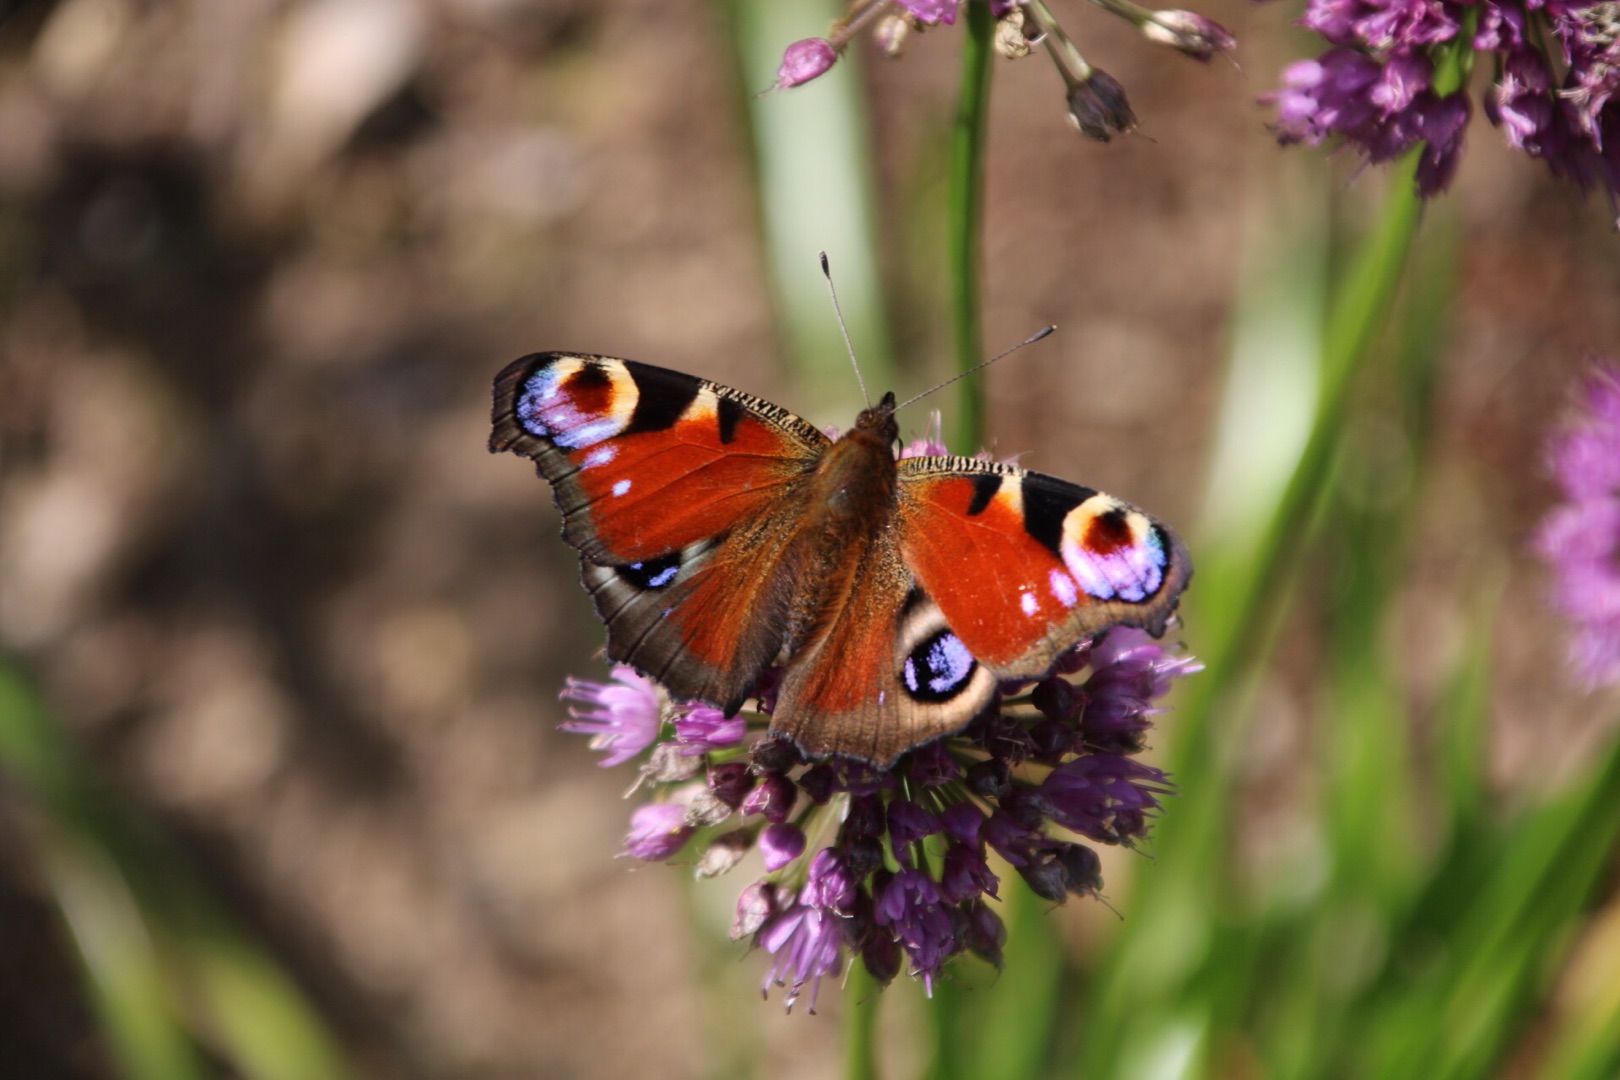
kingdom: Animalia
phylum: Arthropoda
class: Insecta
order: Lepidoptera
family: Nymphalidae
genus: Aglais
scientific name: Aglais io
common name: Dagpåfugleøje
